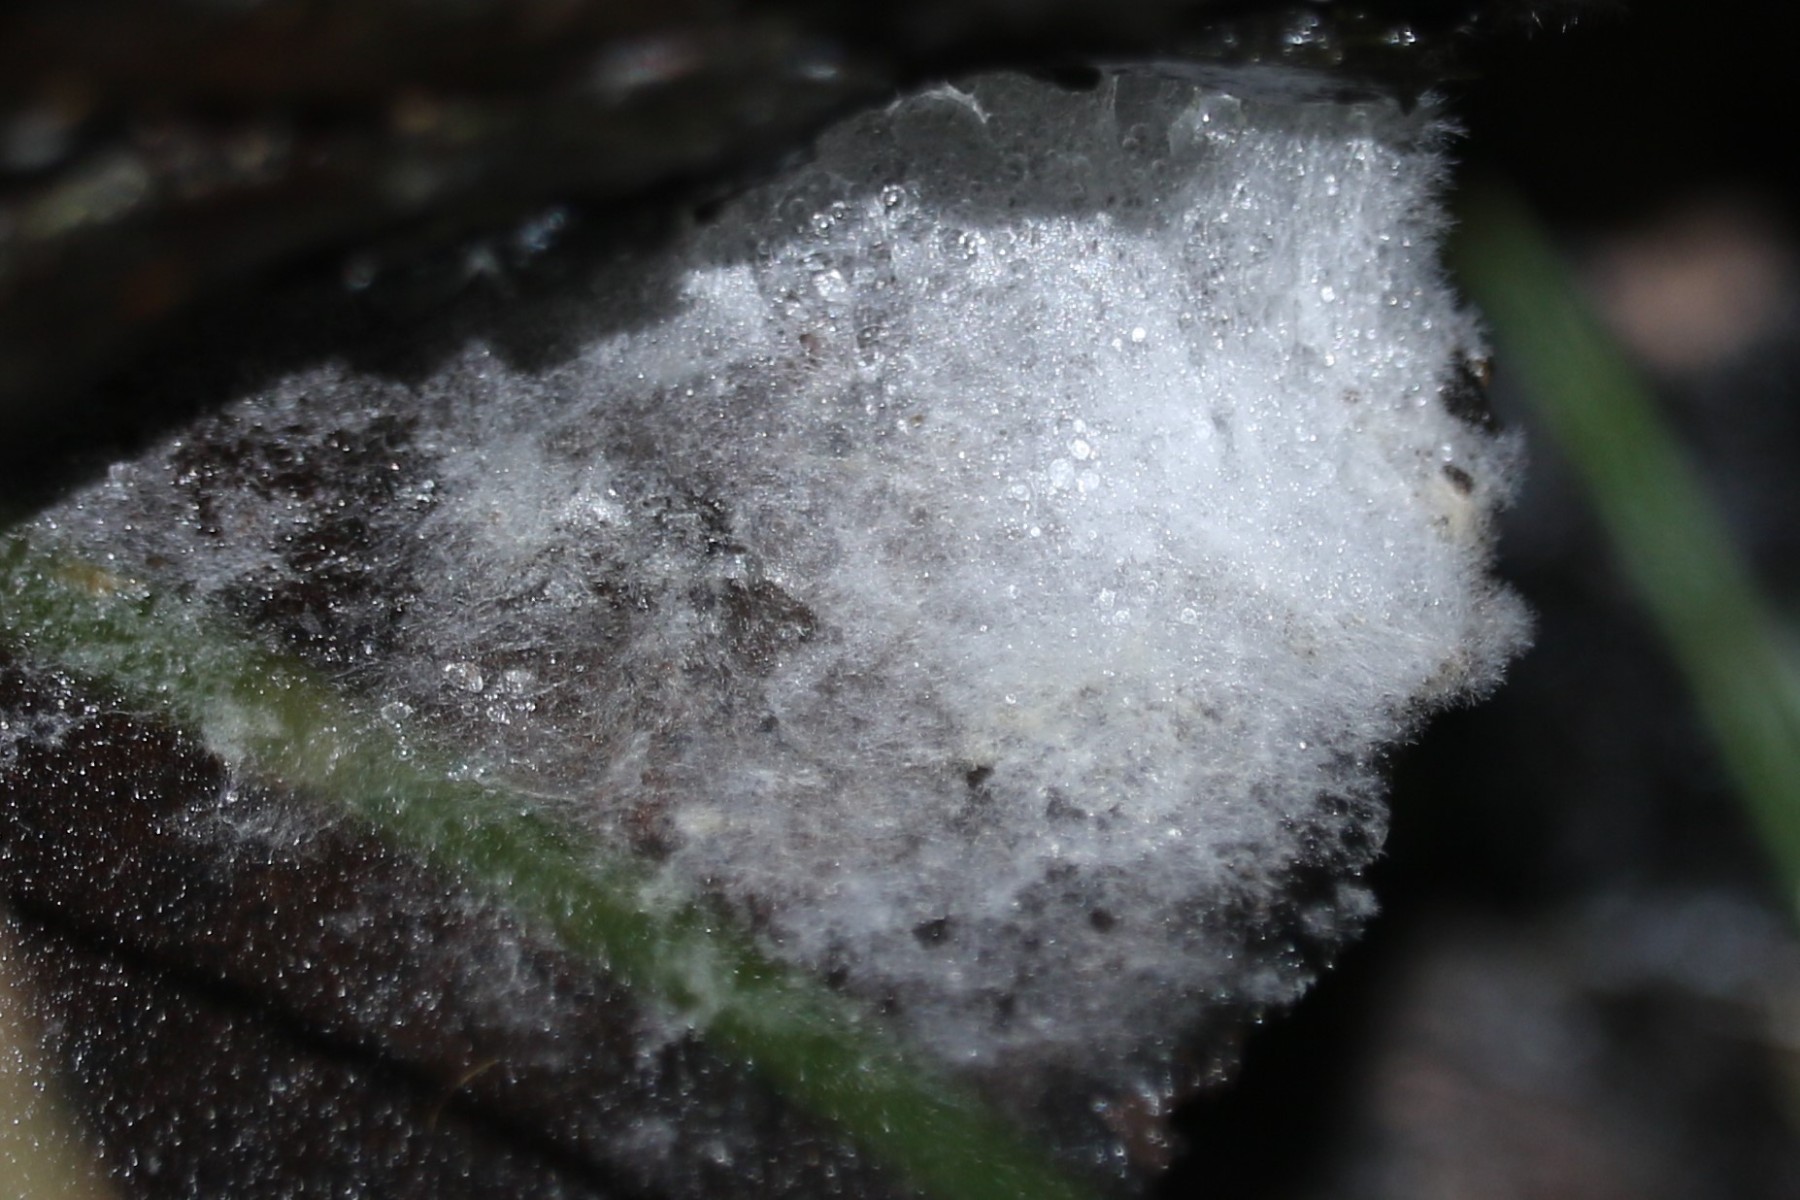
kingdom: Fungi
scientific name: Fungi
